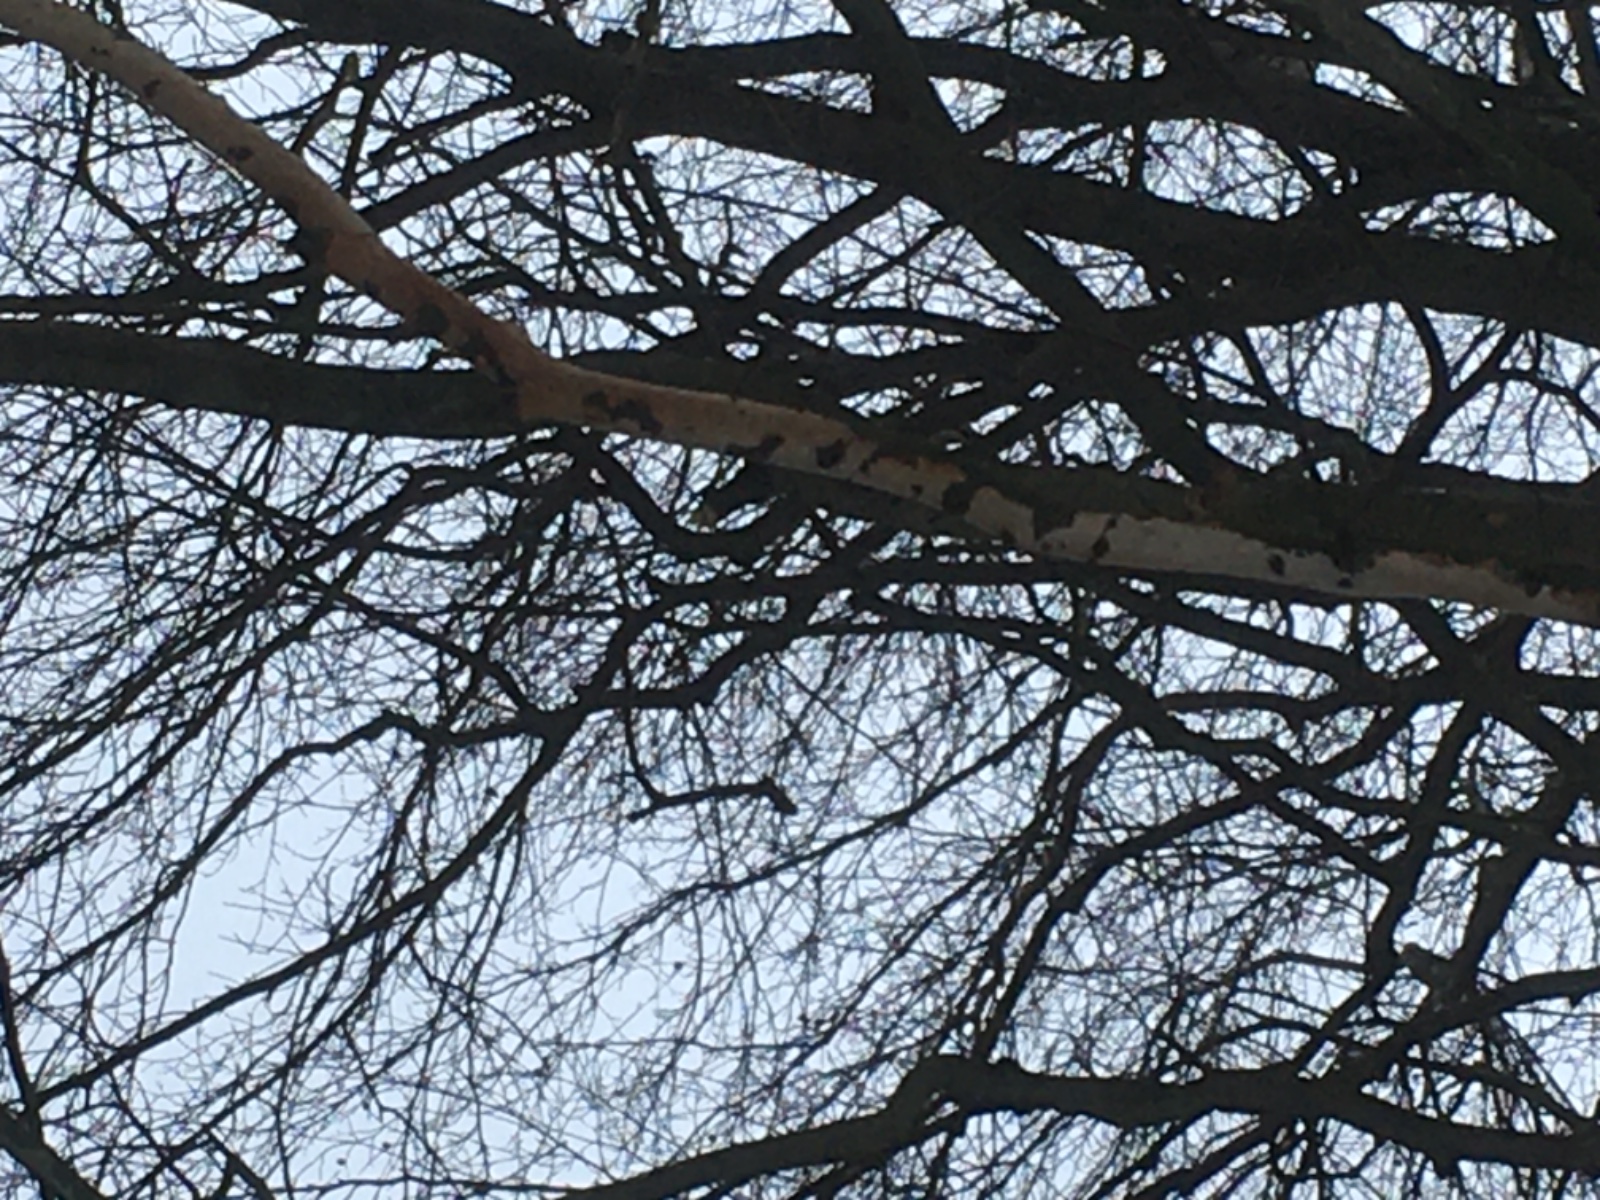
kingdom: Fungi
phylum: Basidiomycota
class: Agaricomycetes
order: Corticiales
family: Vuilleminiaceae
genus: Vuilleminia
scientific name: Vuilleminia comedens
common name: almindelig barksprænger
